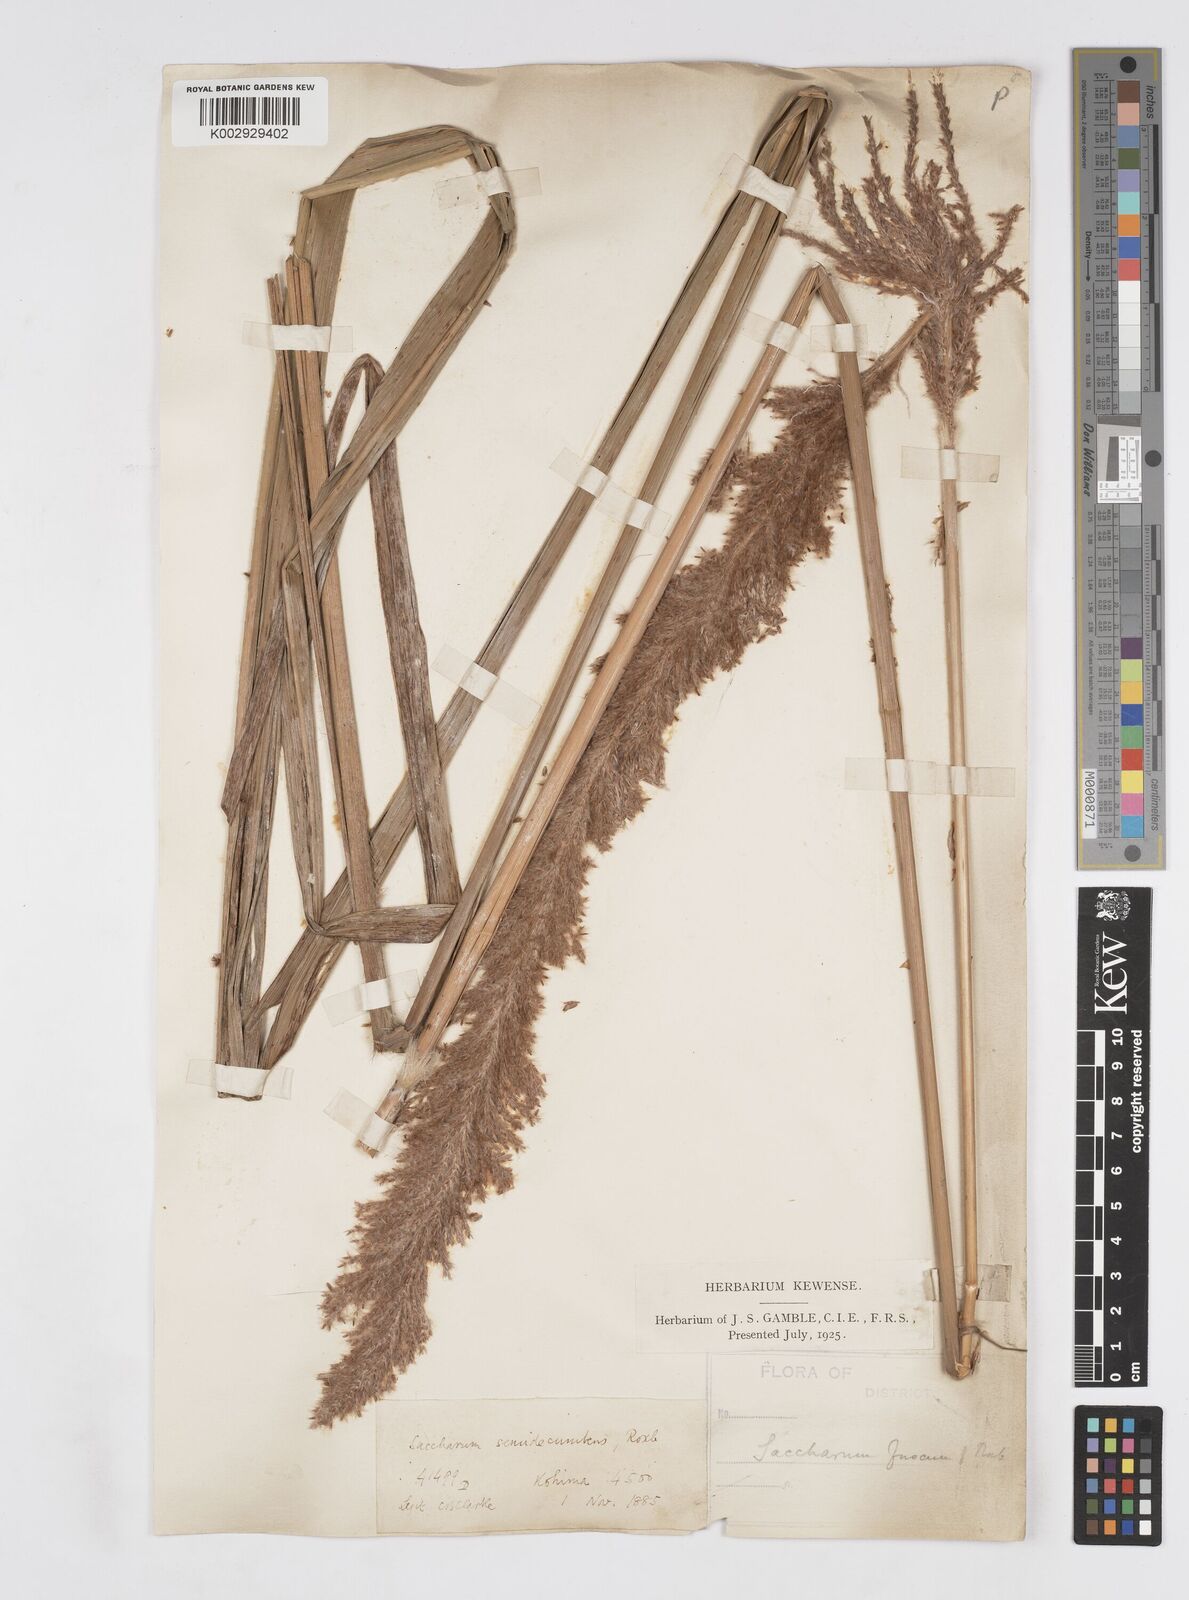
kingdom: Plantae
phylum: Tracheophyta
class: Liliopsida
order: Poales
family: Poaceae
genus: Narenga
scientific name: Narenga porphyrocoma
